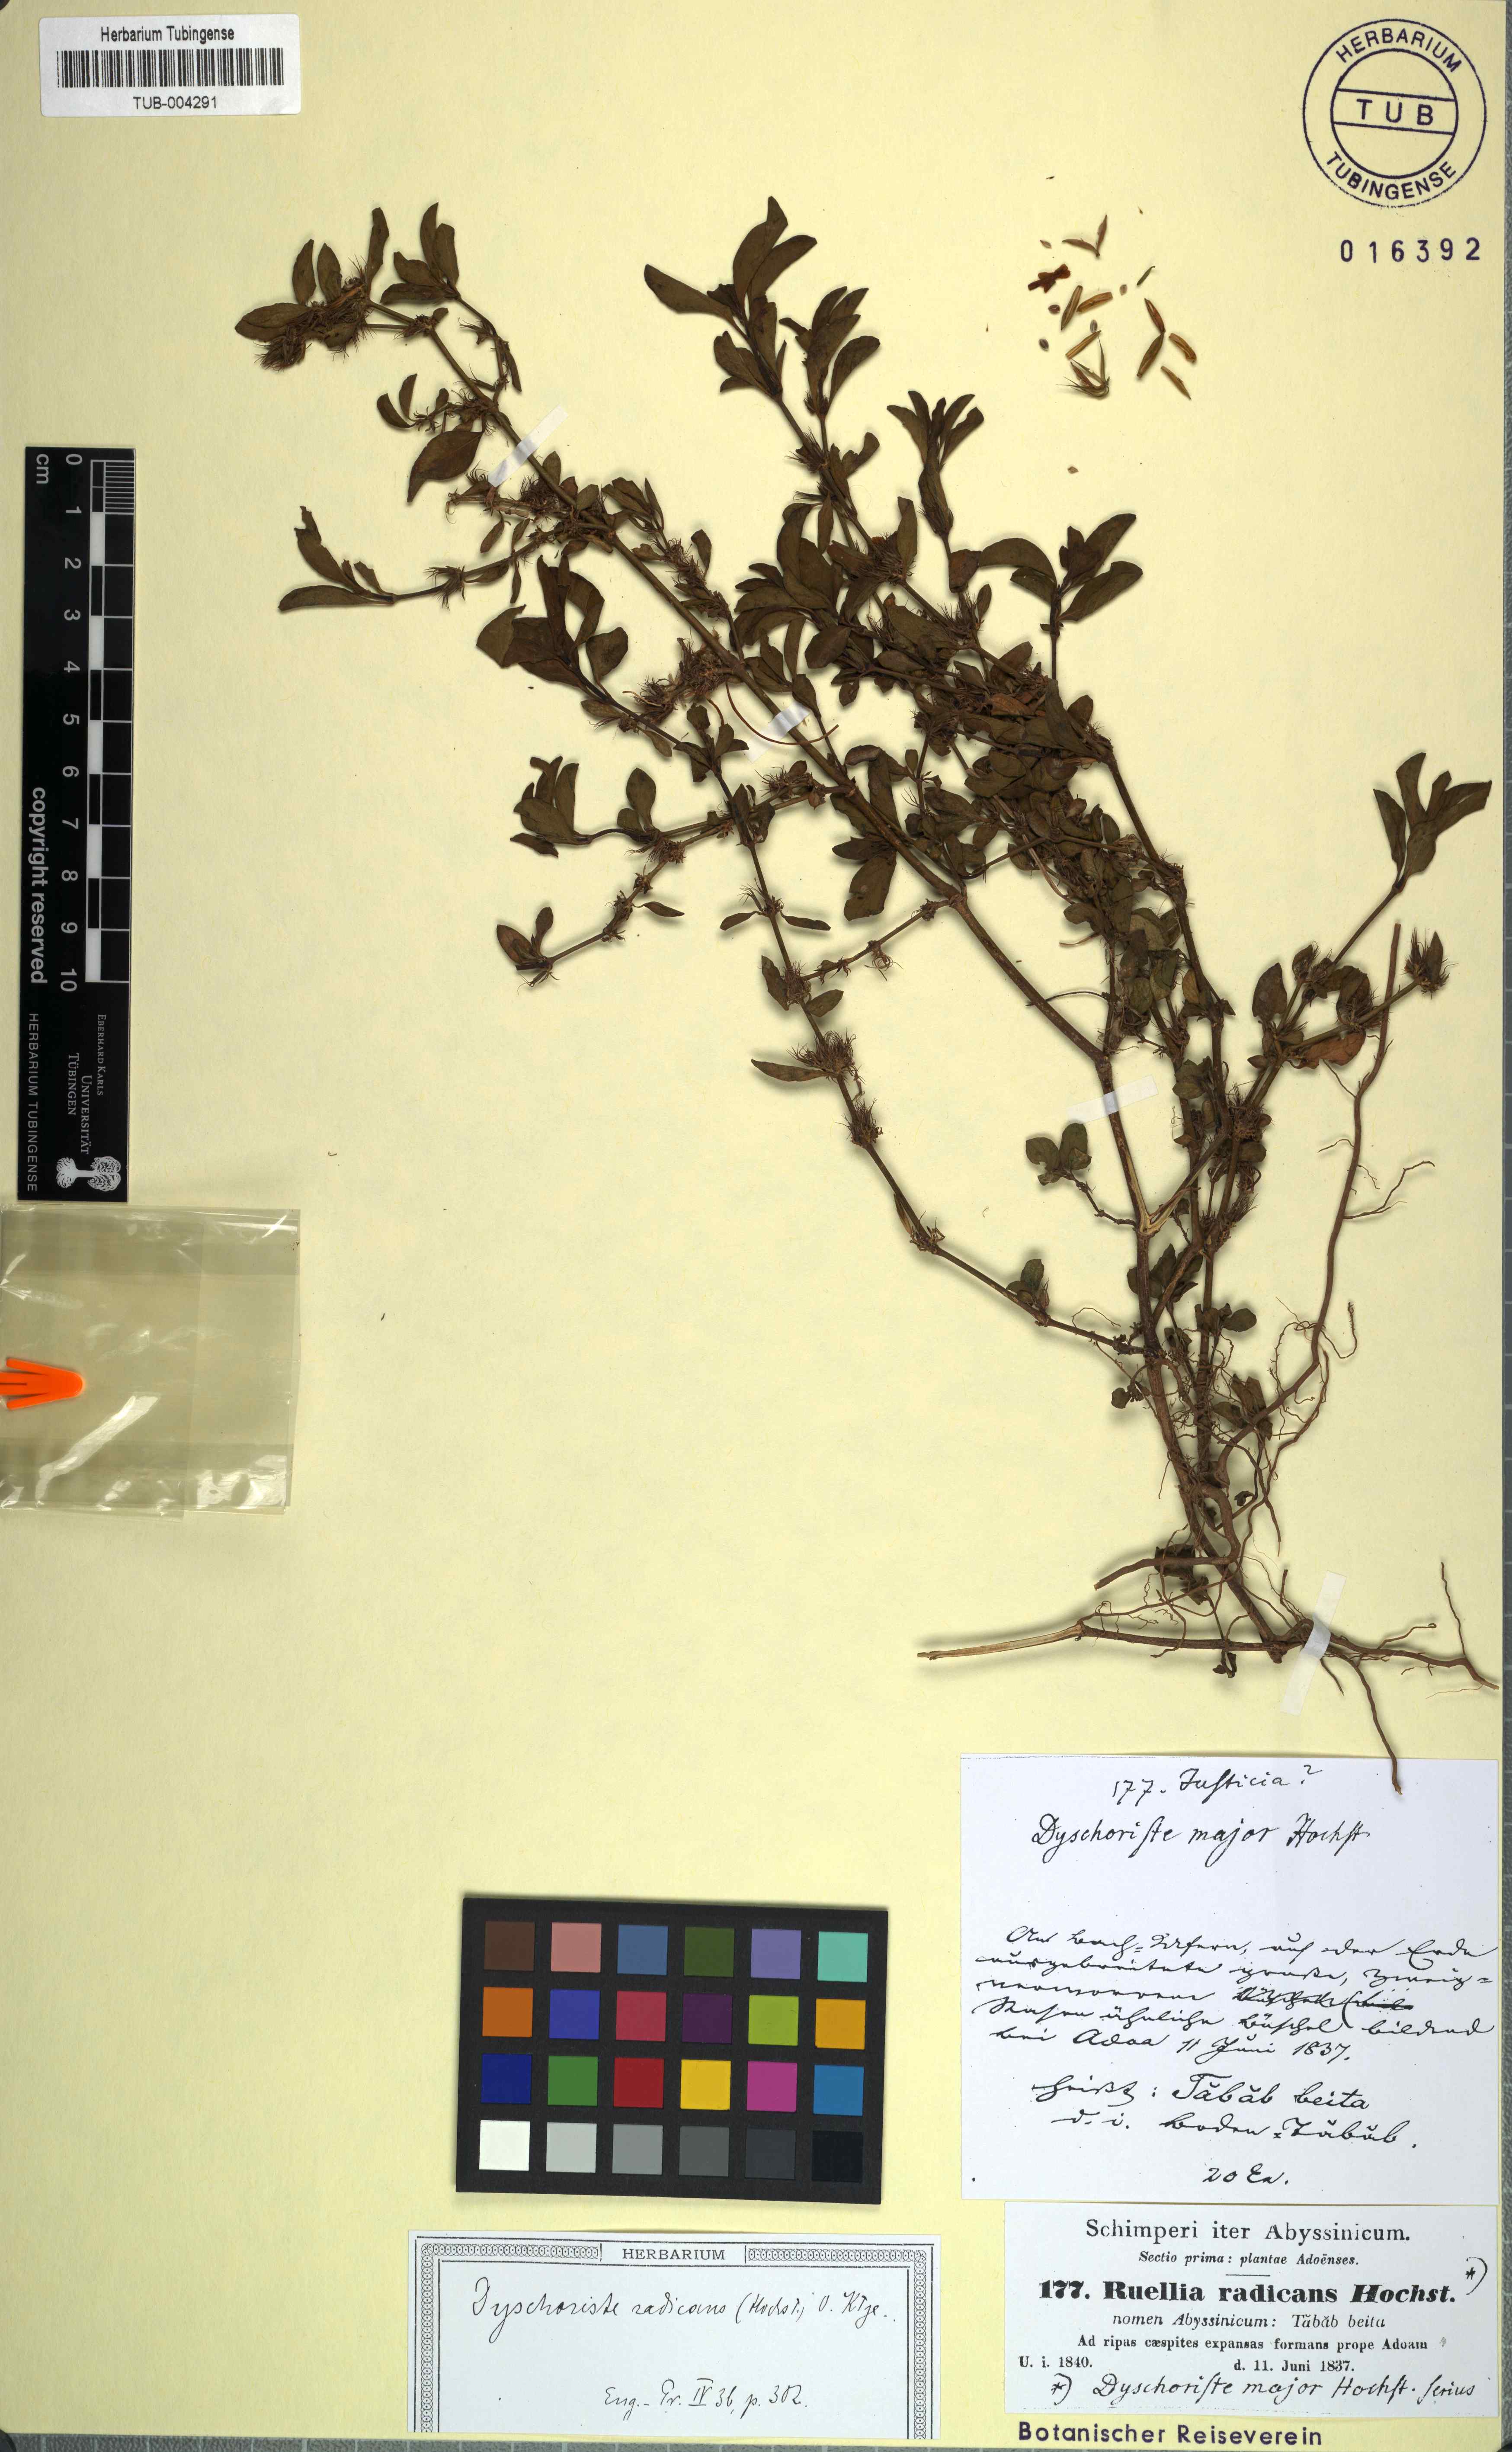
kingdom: Plantae
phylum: Tracheophyta
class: Magnoliopsida
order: Lamiales
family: Acanthaceae
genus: Dyschoriste
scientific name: Dyschoriste radicans
